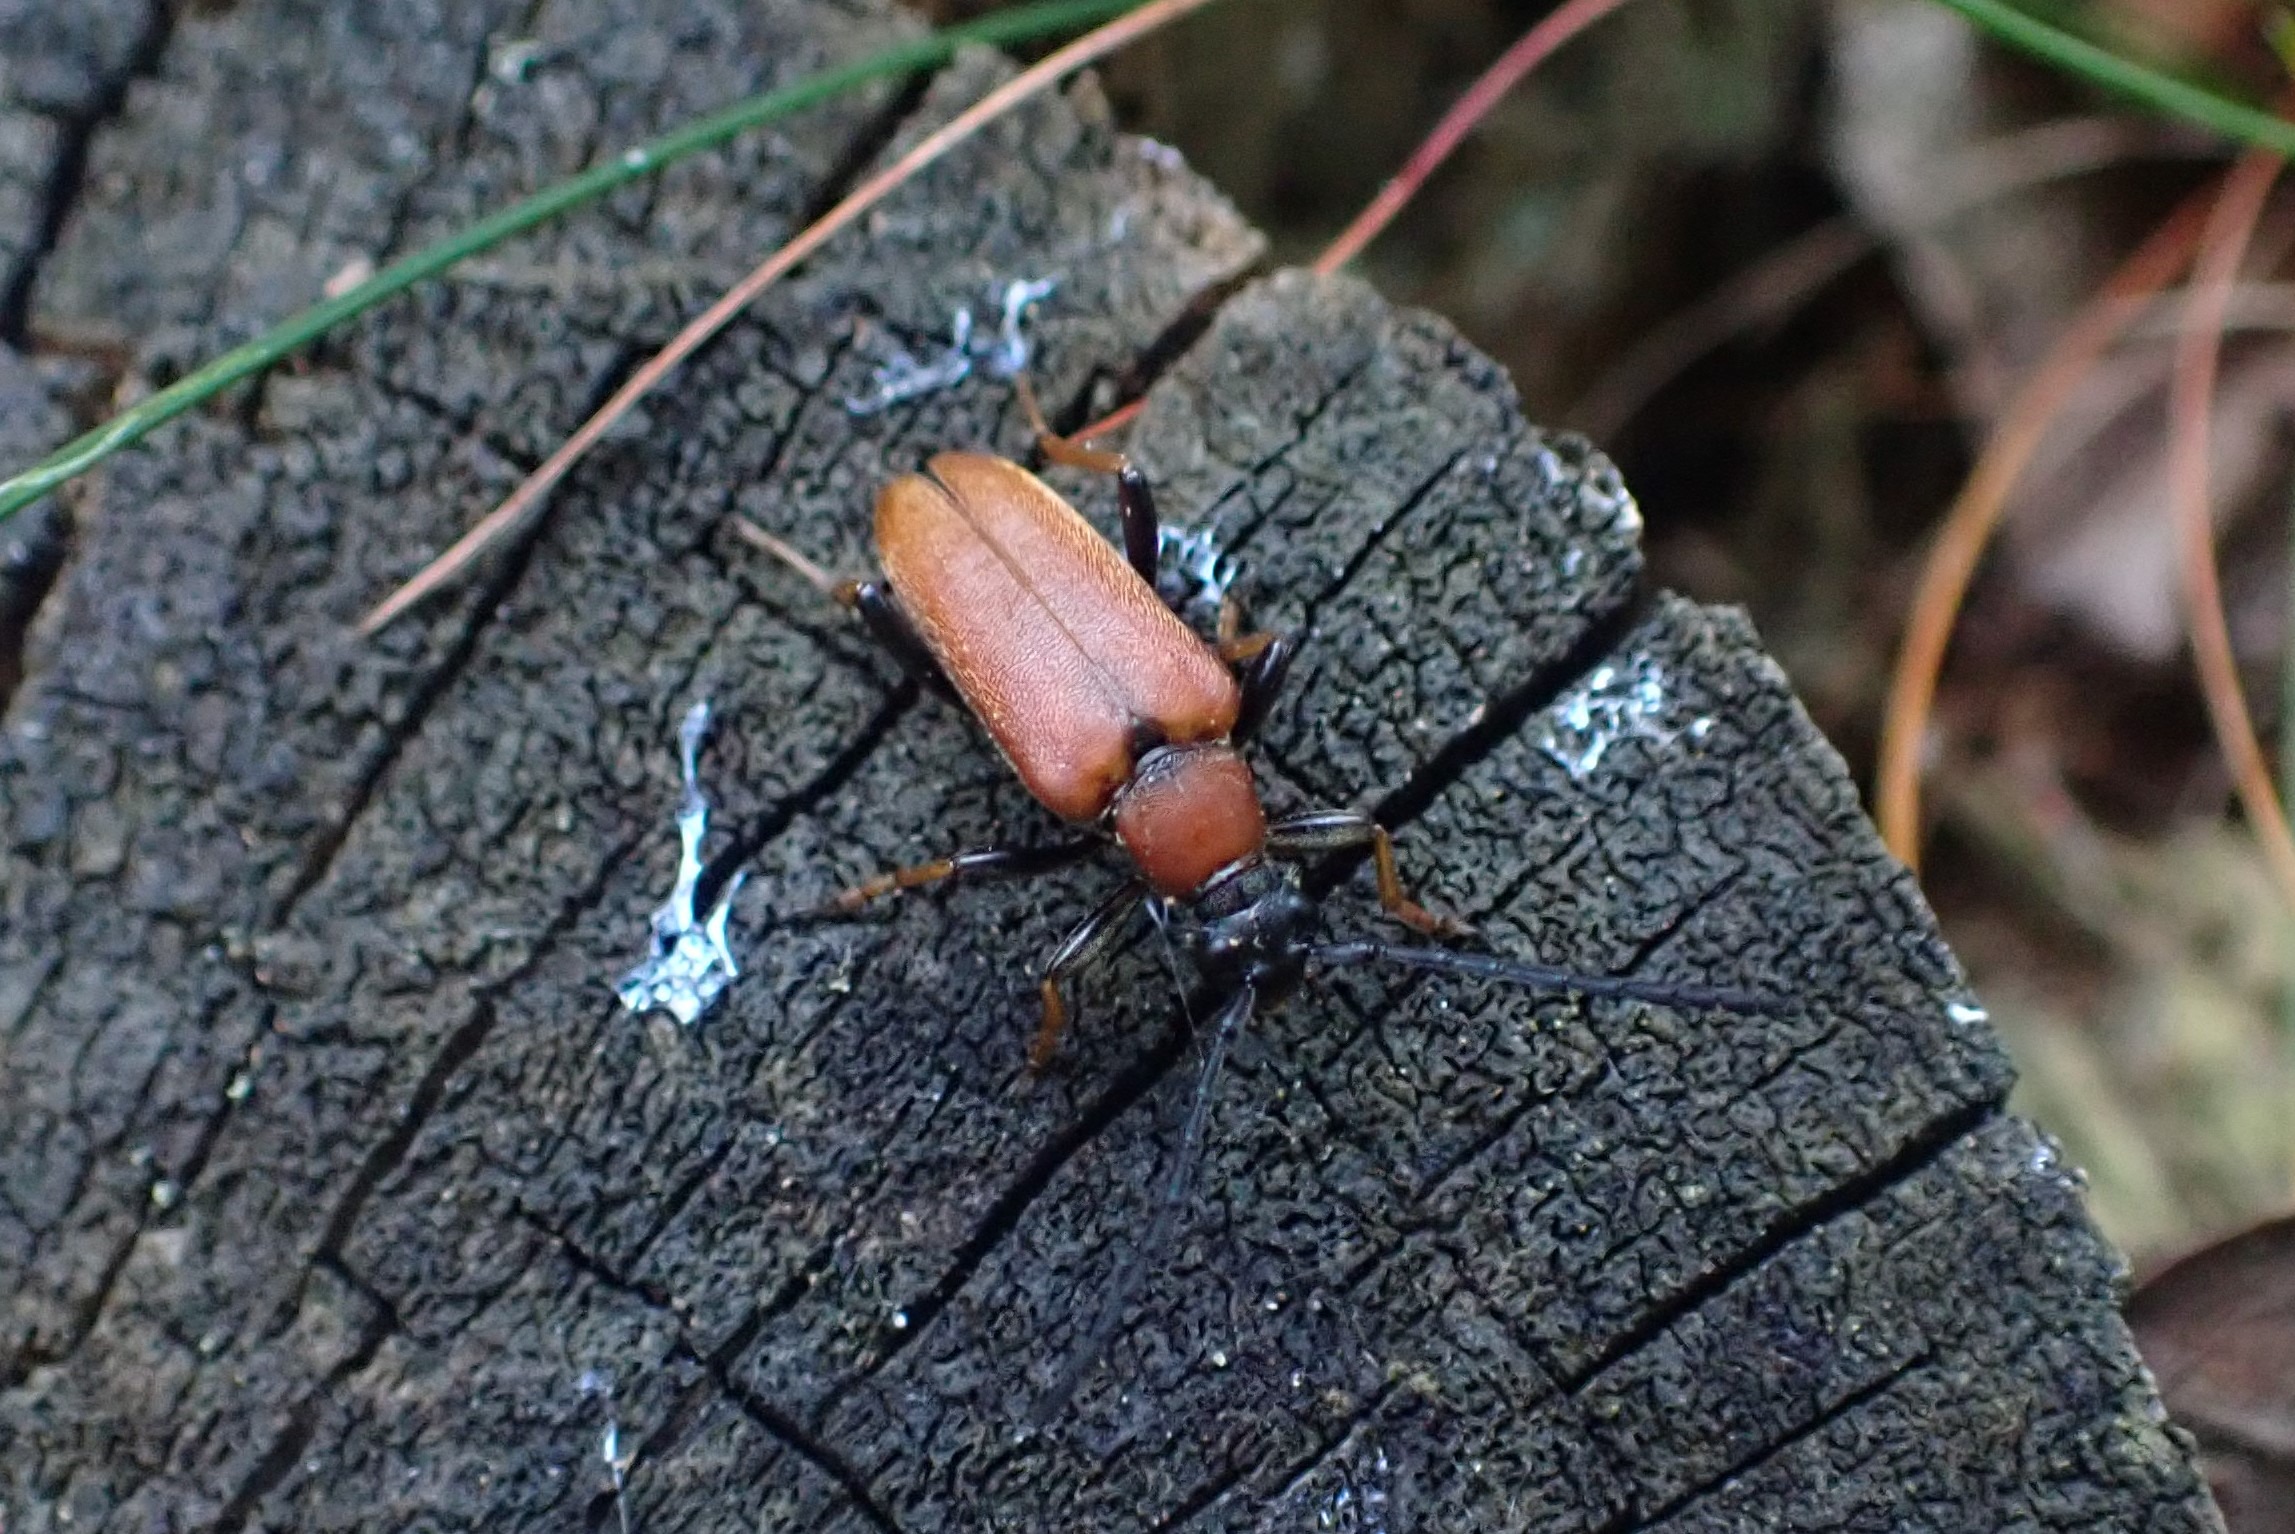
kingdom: Animalia
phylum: Arthropoda
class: Insecta
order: Coleoptera
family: Cerambycidae
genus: Stictoleptura
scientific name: Stictoleptura rubra
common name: Rød blomsterbuk
